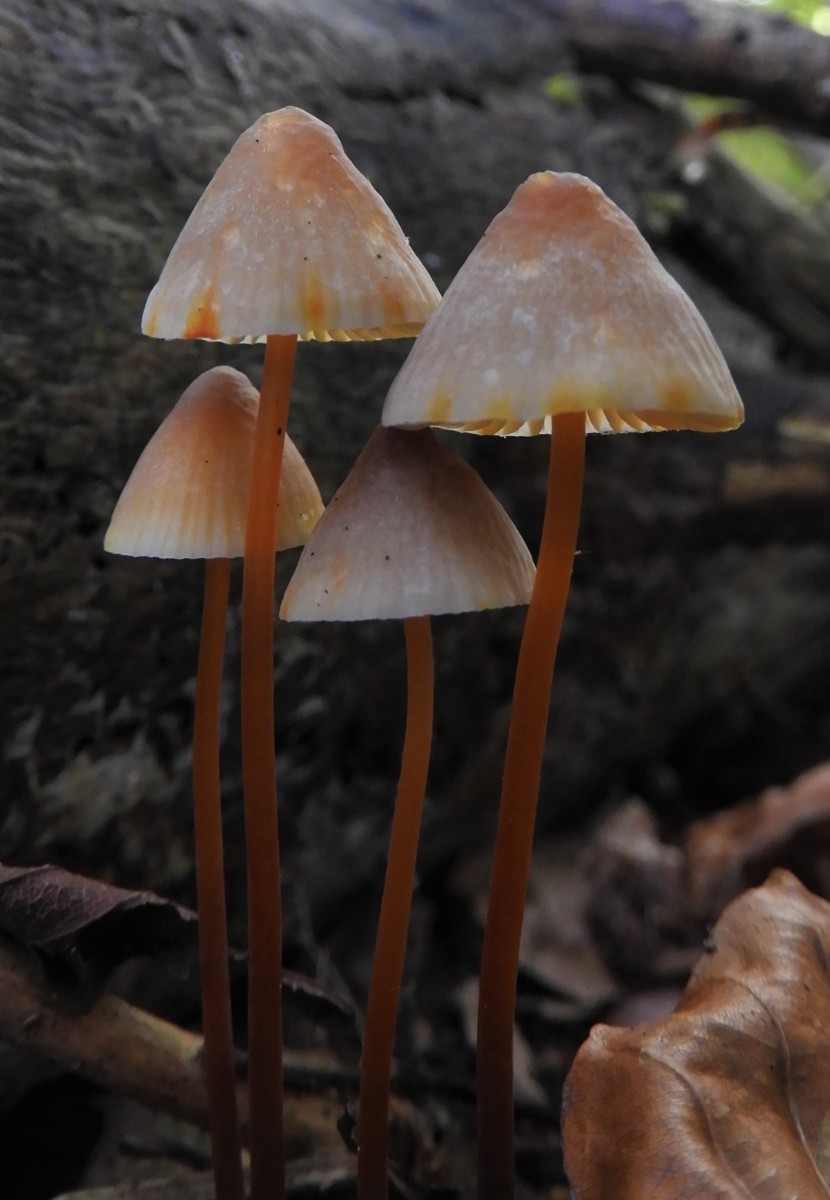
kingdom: Fungi
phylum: Basidiomycota
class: Agaricomycetes
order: Agaricales
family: Mycenaceae
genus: Mycena
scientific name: Mycena crocata
